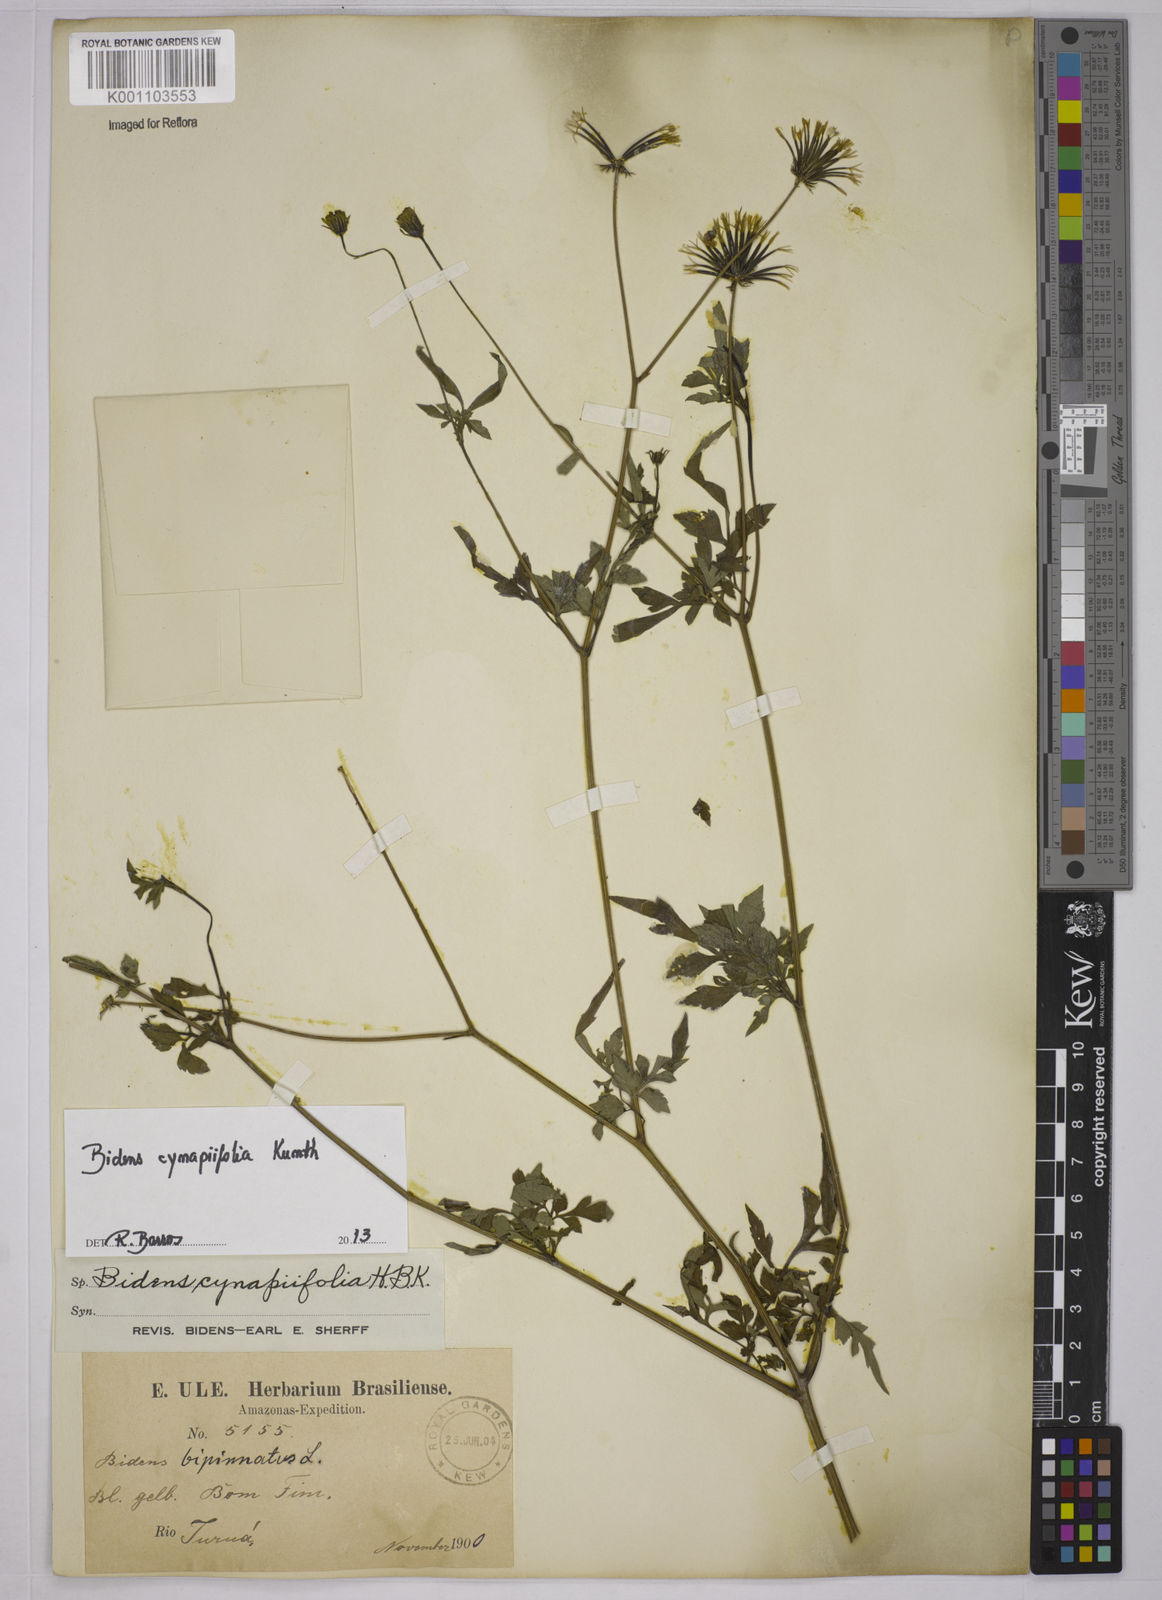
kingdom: Plantae
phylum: Tracheophyta
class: Magnoliopsida
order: Asterales
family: Asteraceae
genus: Bidens
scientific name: Bidens cynapiifolia
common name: Beggar's tick
